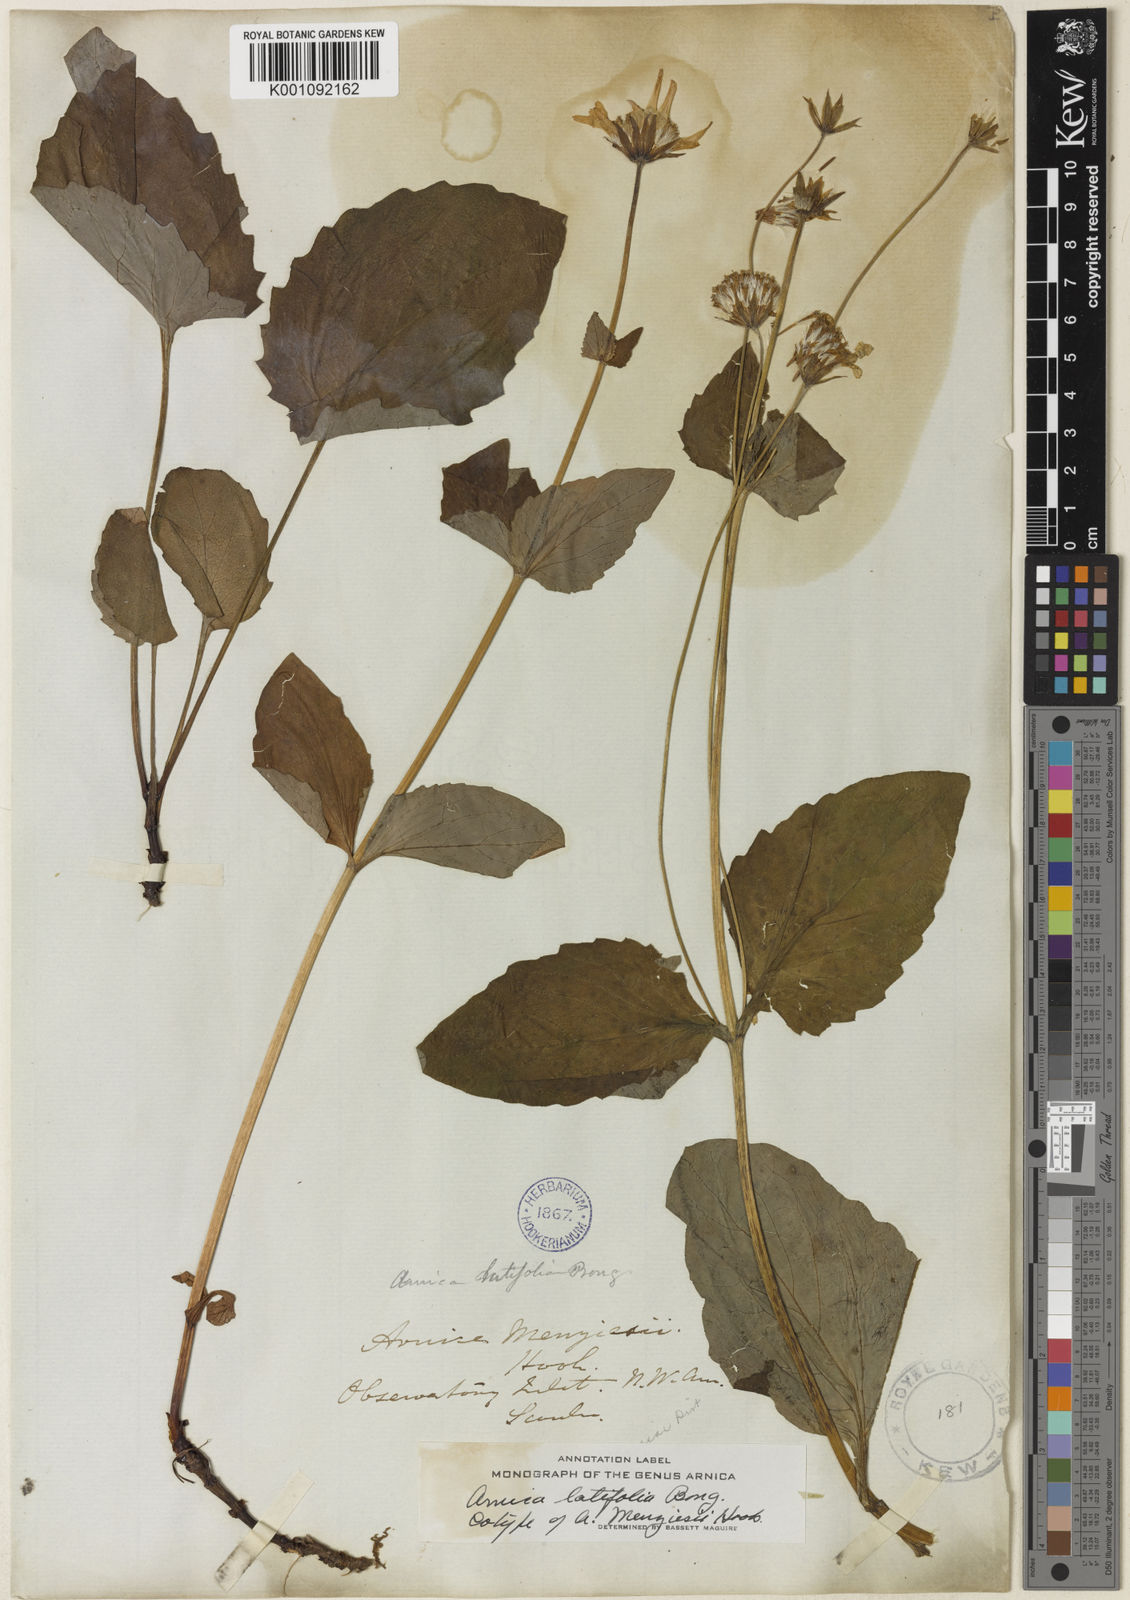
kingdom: Plantae
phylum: Tracheophyta
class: Magnoliopsida
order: Asterales
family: Asteraceae
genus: Arnica
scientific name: Arnica latifolia
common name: Arnica
